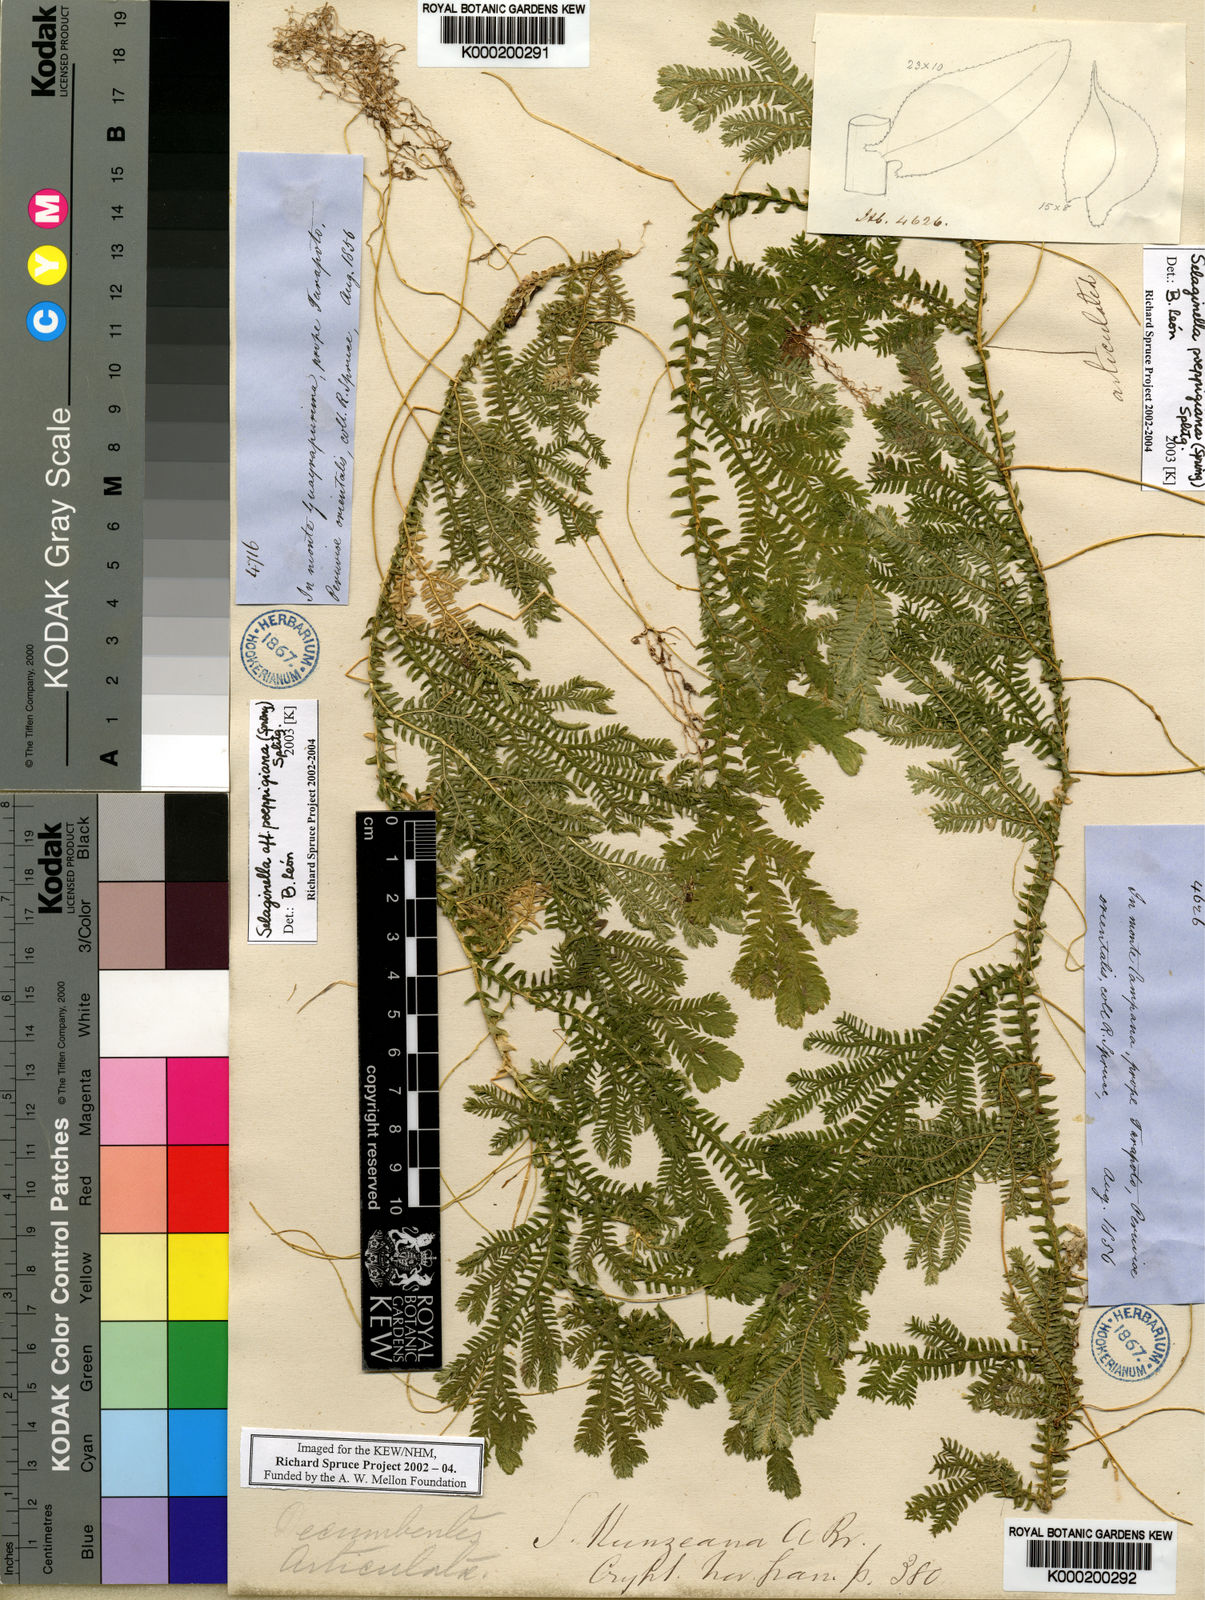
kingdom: Plantae
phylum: Tracheophyta
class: Lycopodiopsida
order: Selaginellales
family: Selaginellaceae
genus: Selaginella
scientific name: Selaginella poeppigiana
